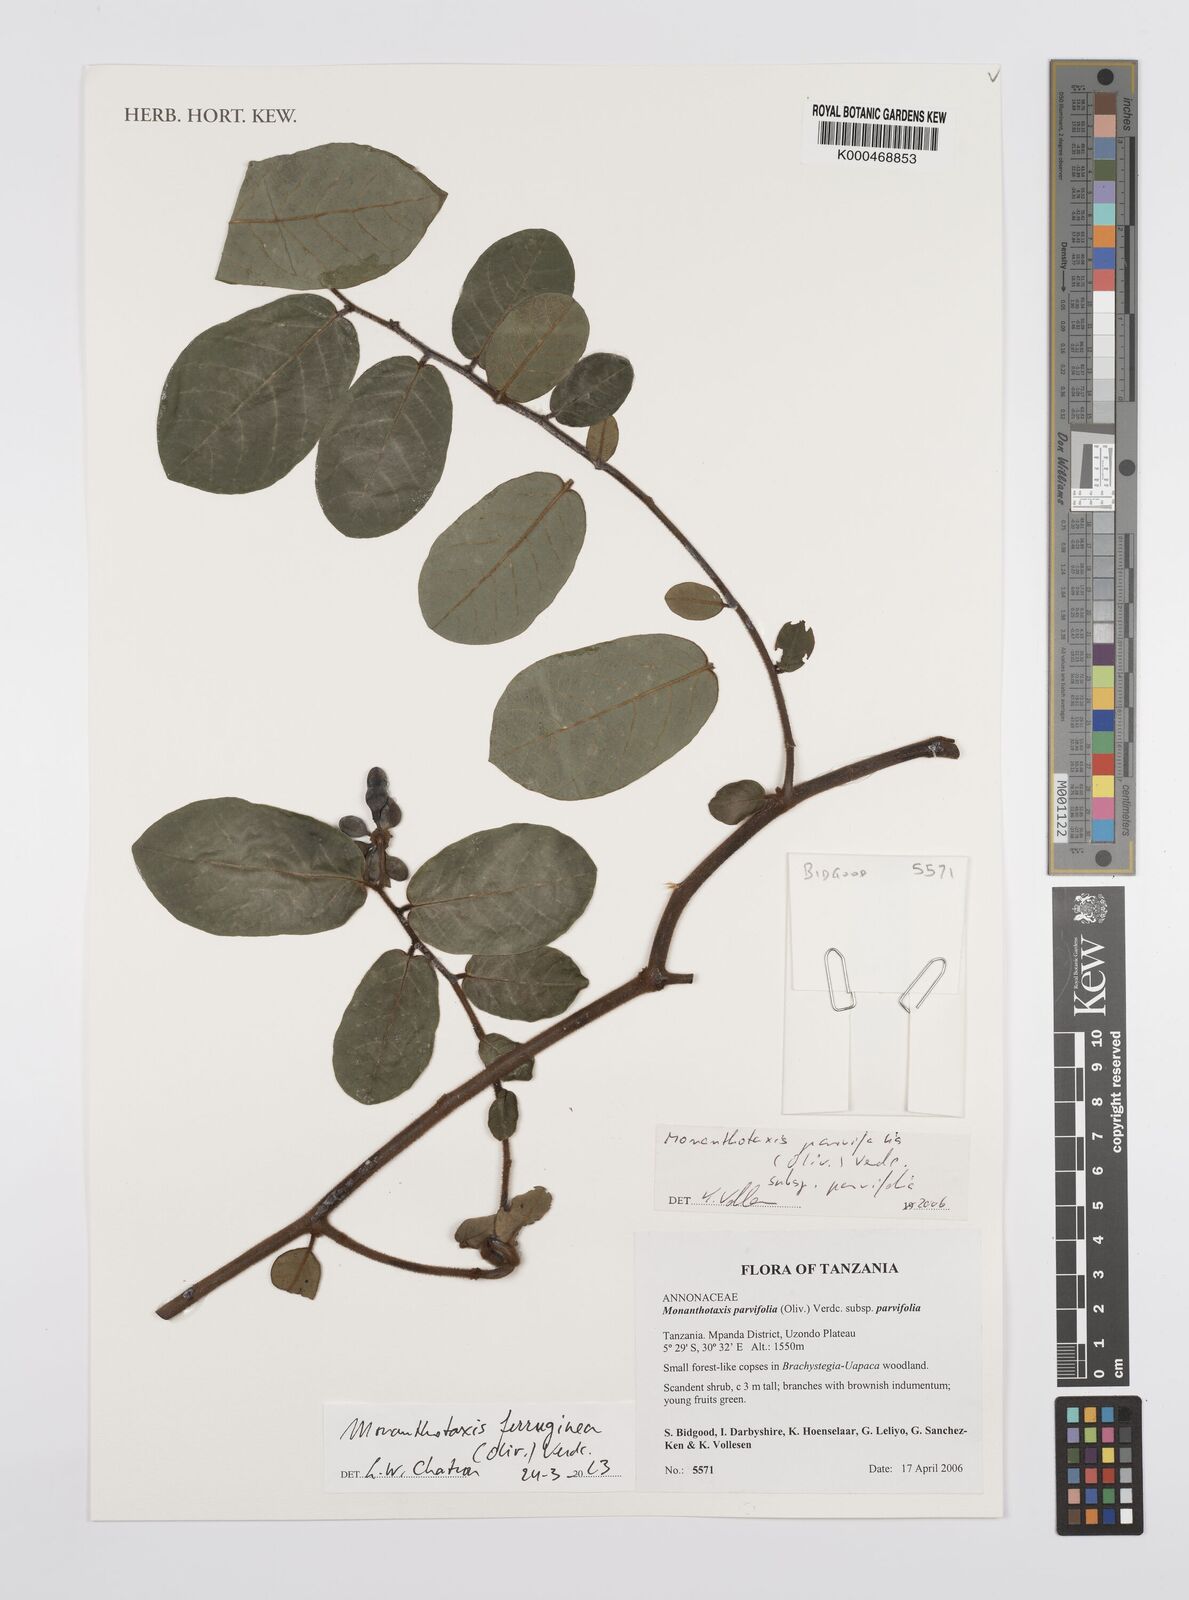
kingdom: Plantae
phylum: Tracheophyta
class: Magnoliopsida
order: Magnoliales
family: Annonaceae
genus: Monanthotaxis
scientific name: Monanthotaxis parvifolia
